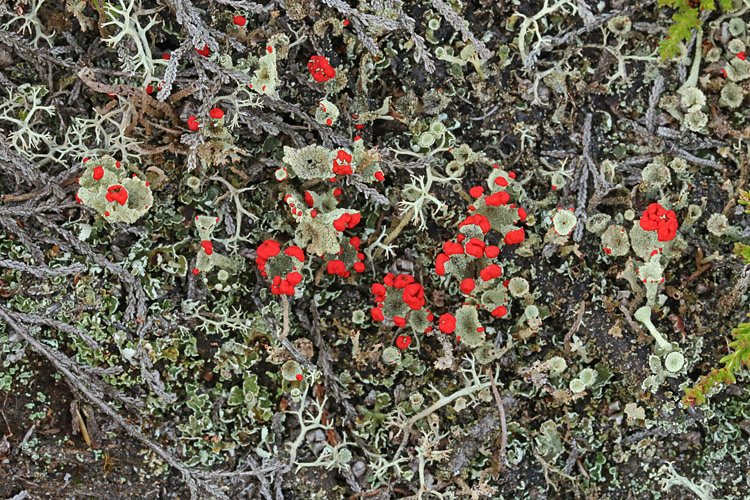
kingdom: Fungi
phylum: Ascomycota
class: Lecanoromycetes
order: Lecanorales
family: Cladoniaceae
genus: Cladonia
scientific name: Cladonia diversa
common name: rød bægerlav
